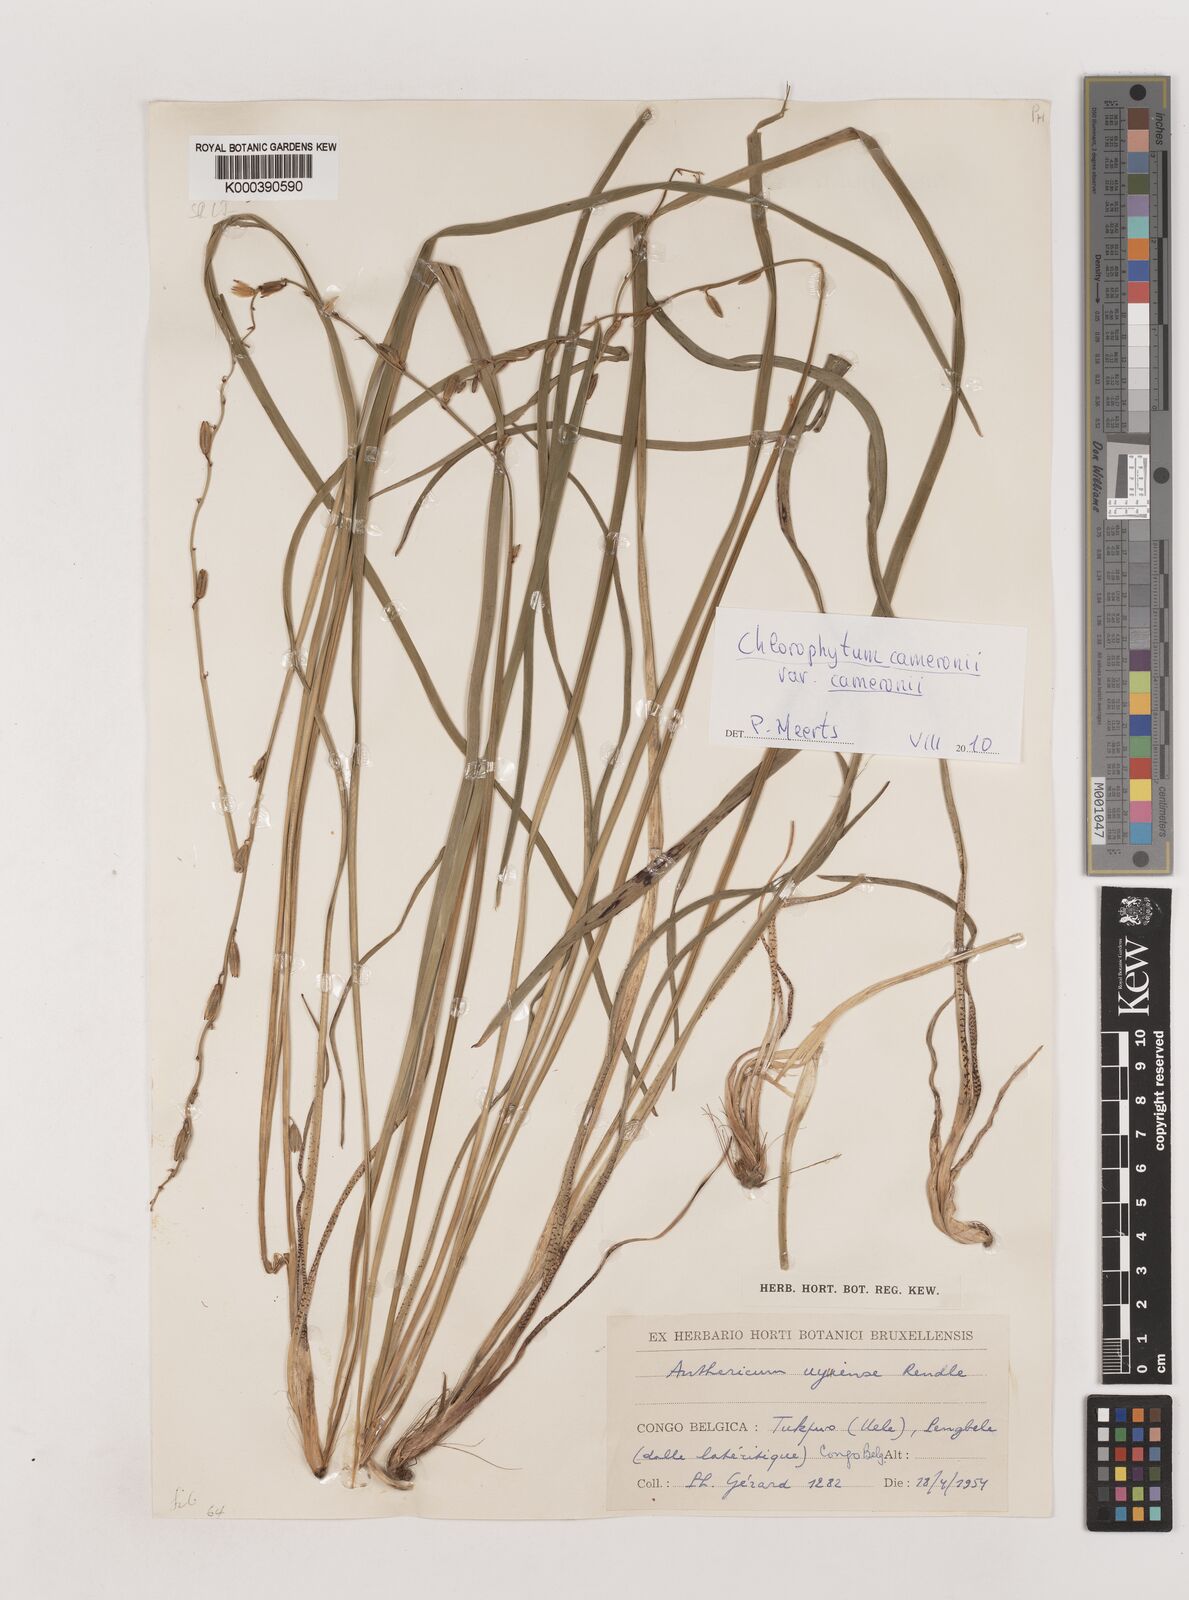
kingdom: Plantae
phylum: Tracheophyta
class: Liliopsida
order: Asparagales
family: Asparagaceae
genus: Chlorophytum
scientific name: Chlorophytum cameronii
